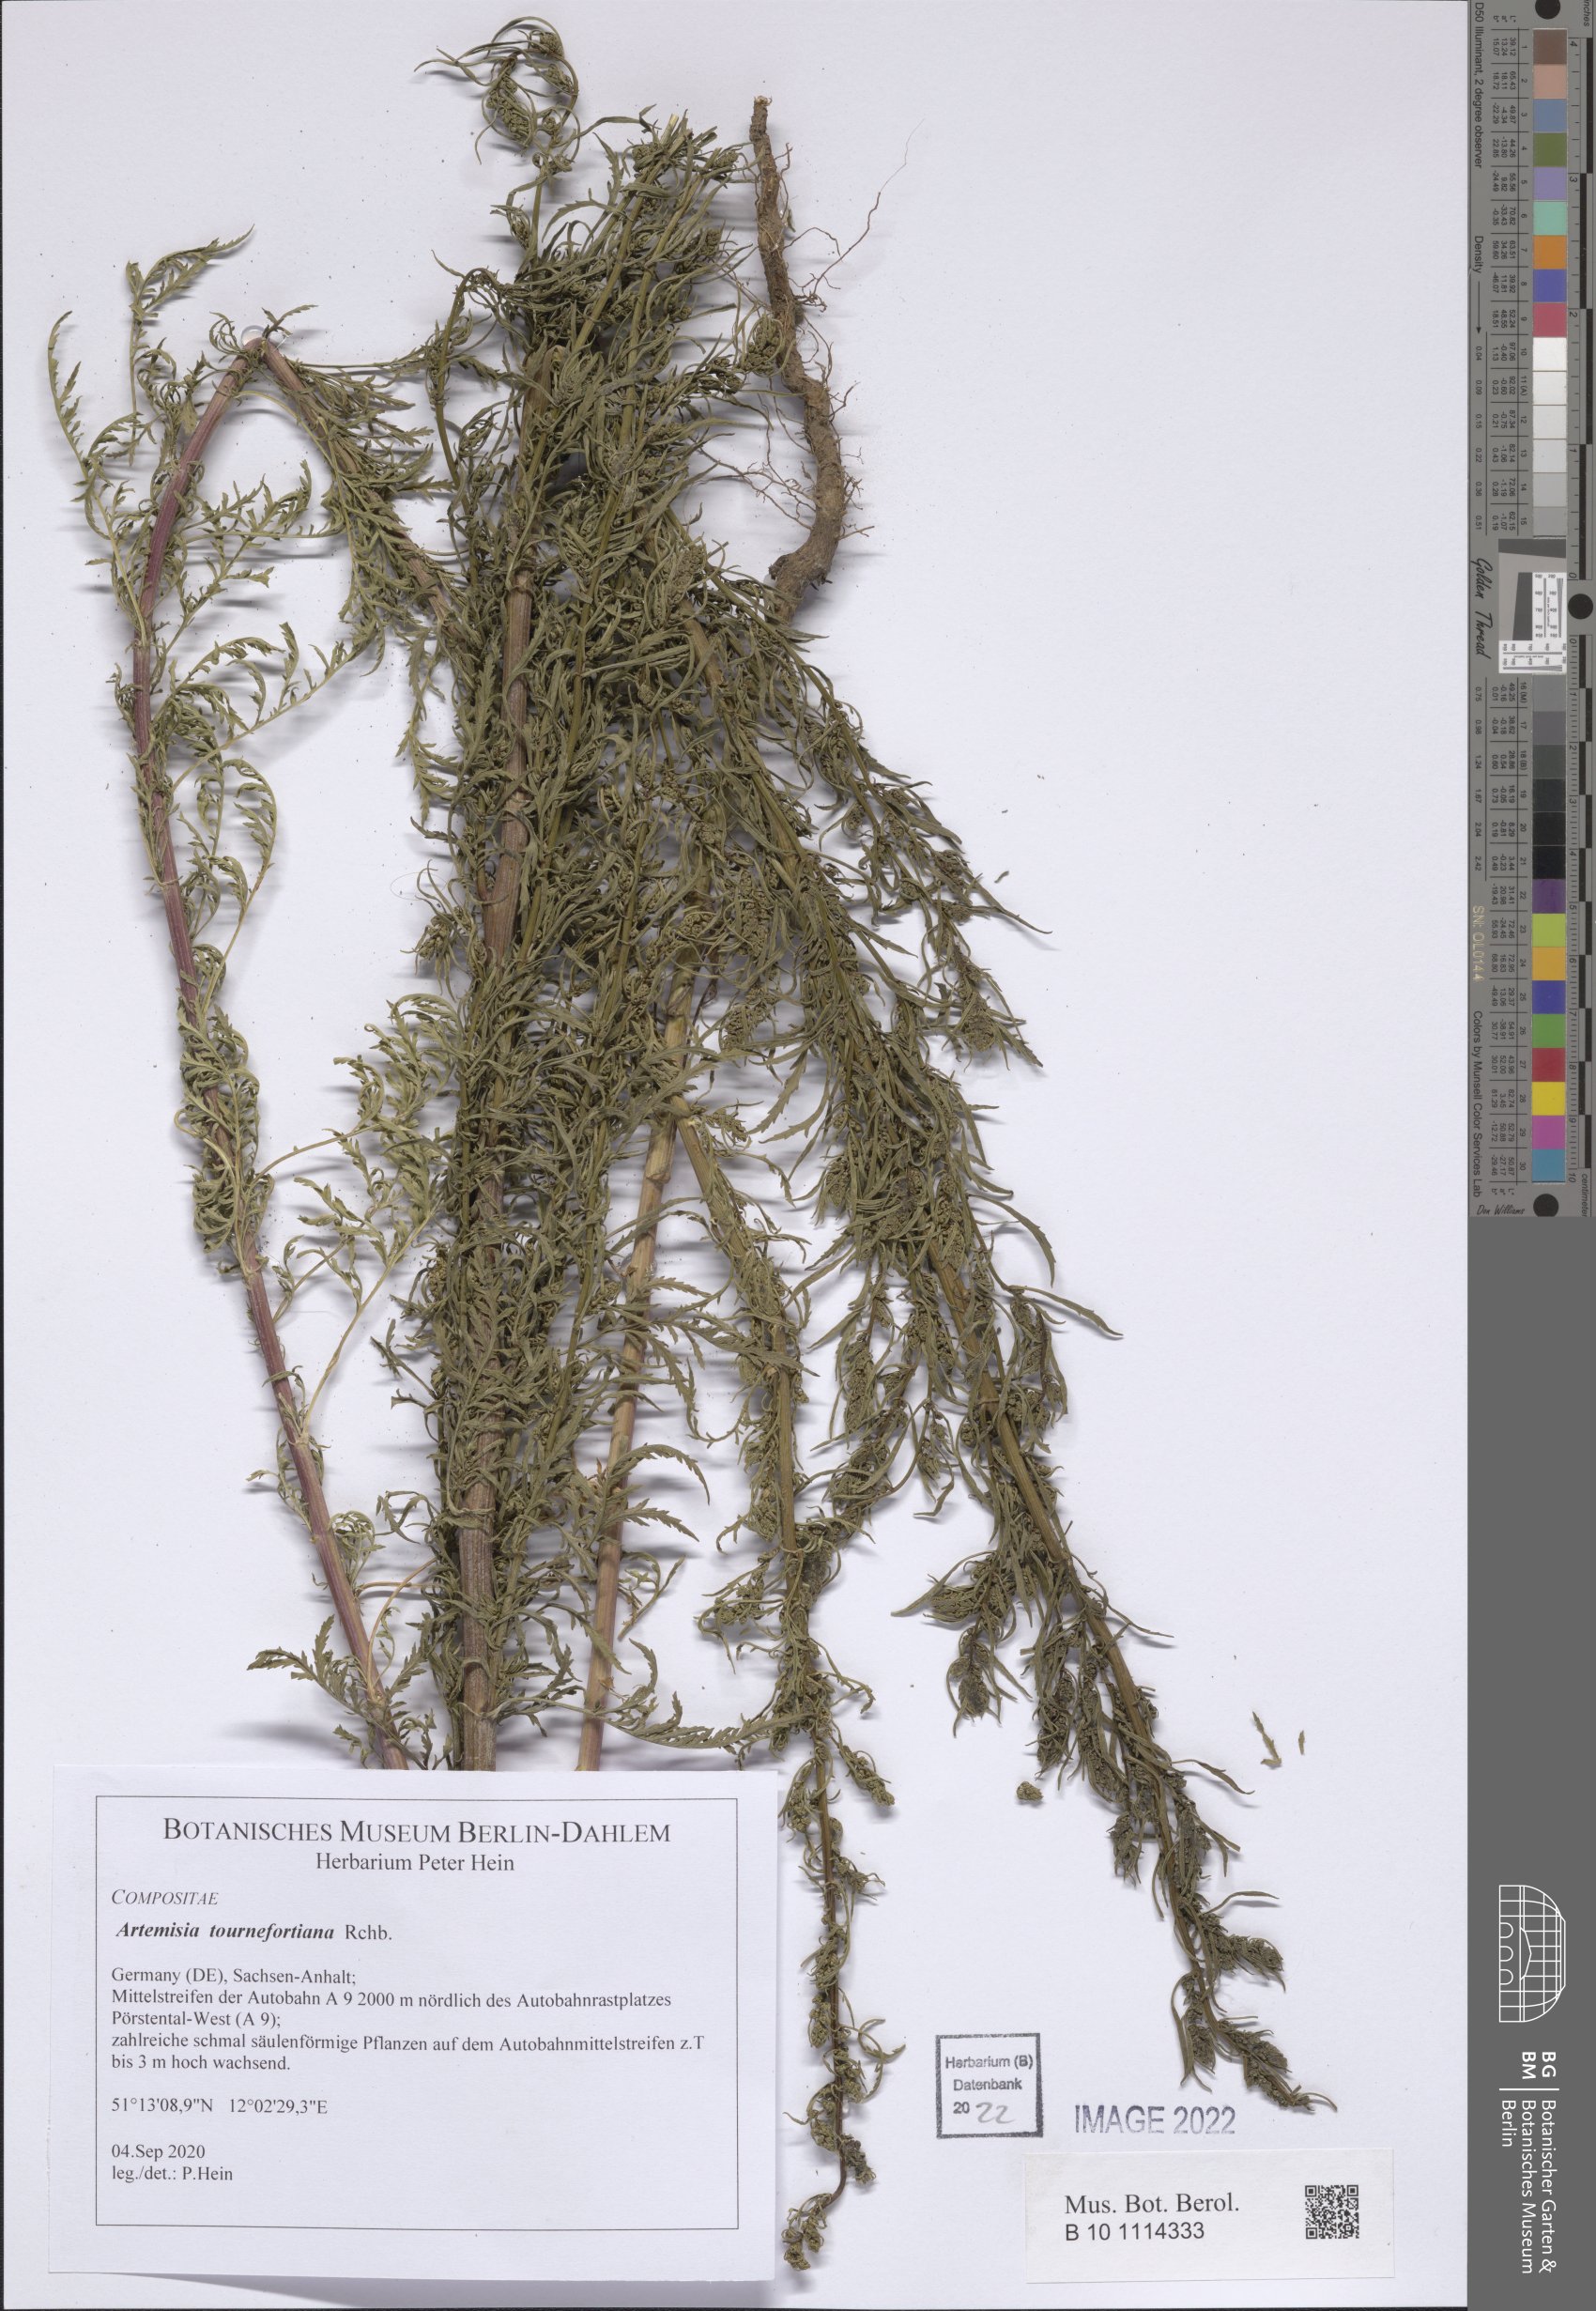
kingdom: Plantae
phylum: Tracheophyta
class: Magnoliopsida
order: Asterales
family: Asteraceae
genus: Artemisia
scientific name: Artemisia tournefortiana
